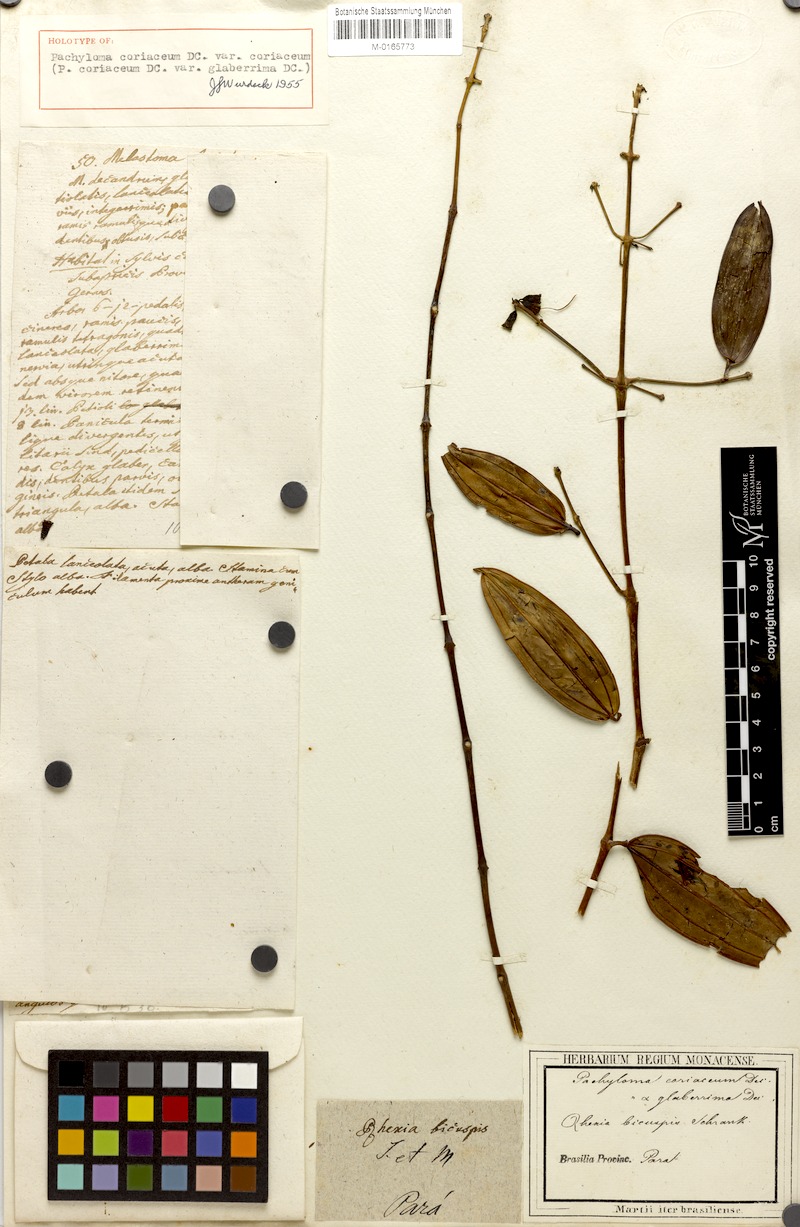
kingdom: Plantae
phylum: Tracheophyta
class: Magnoliopsida
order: Myrtales
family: Melastomataceae
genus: Pachyloma
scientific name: Pachyloma coriaceum
